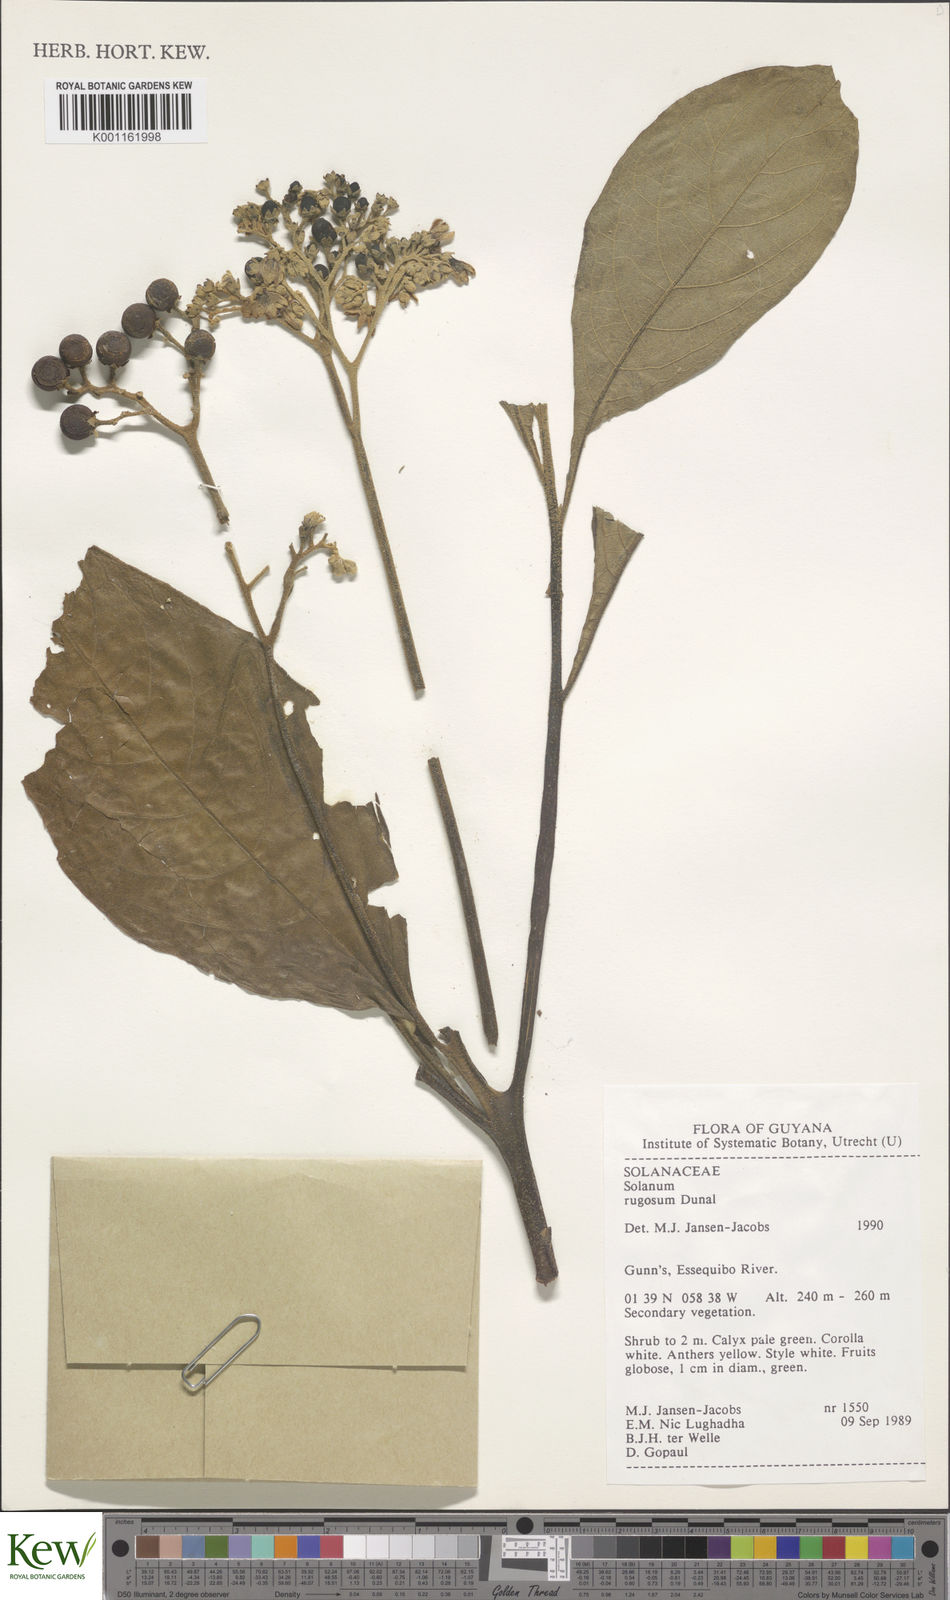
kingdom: Plantae
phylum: Tracheophyta
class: Magnoliopsida
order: Solanales
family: Solanaceae
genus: Solanum
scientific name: Solanum rugosum
